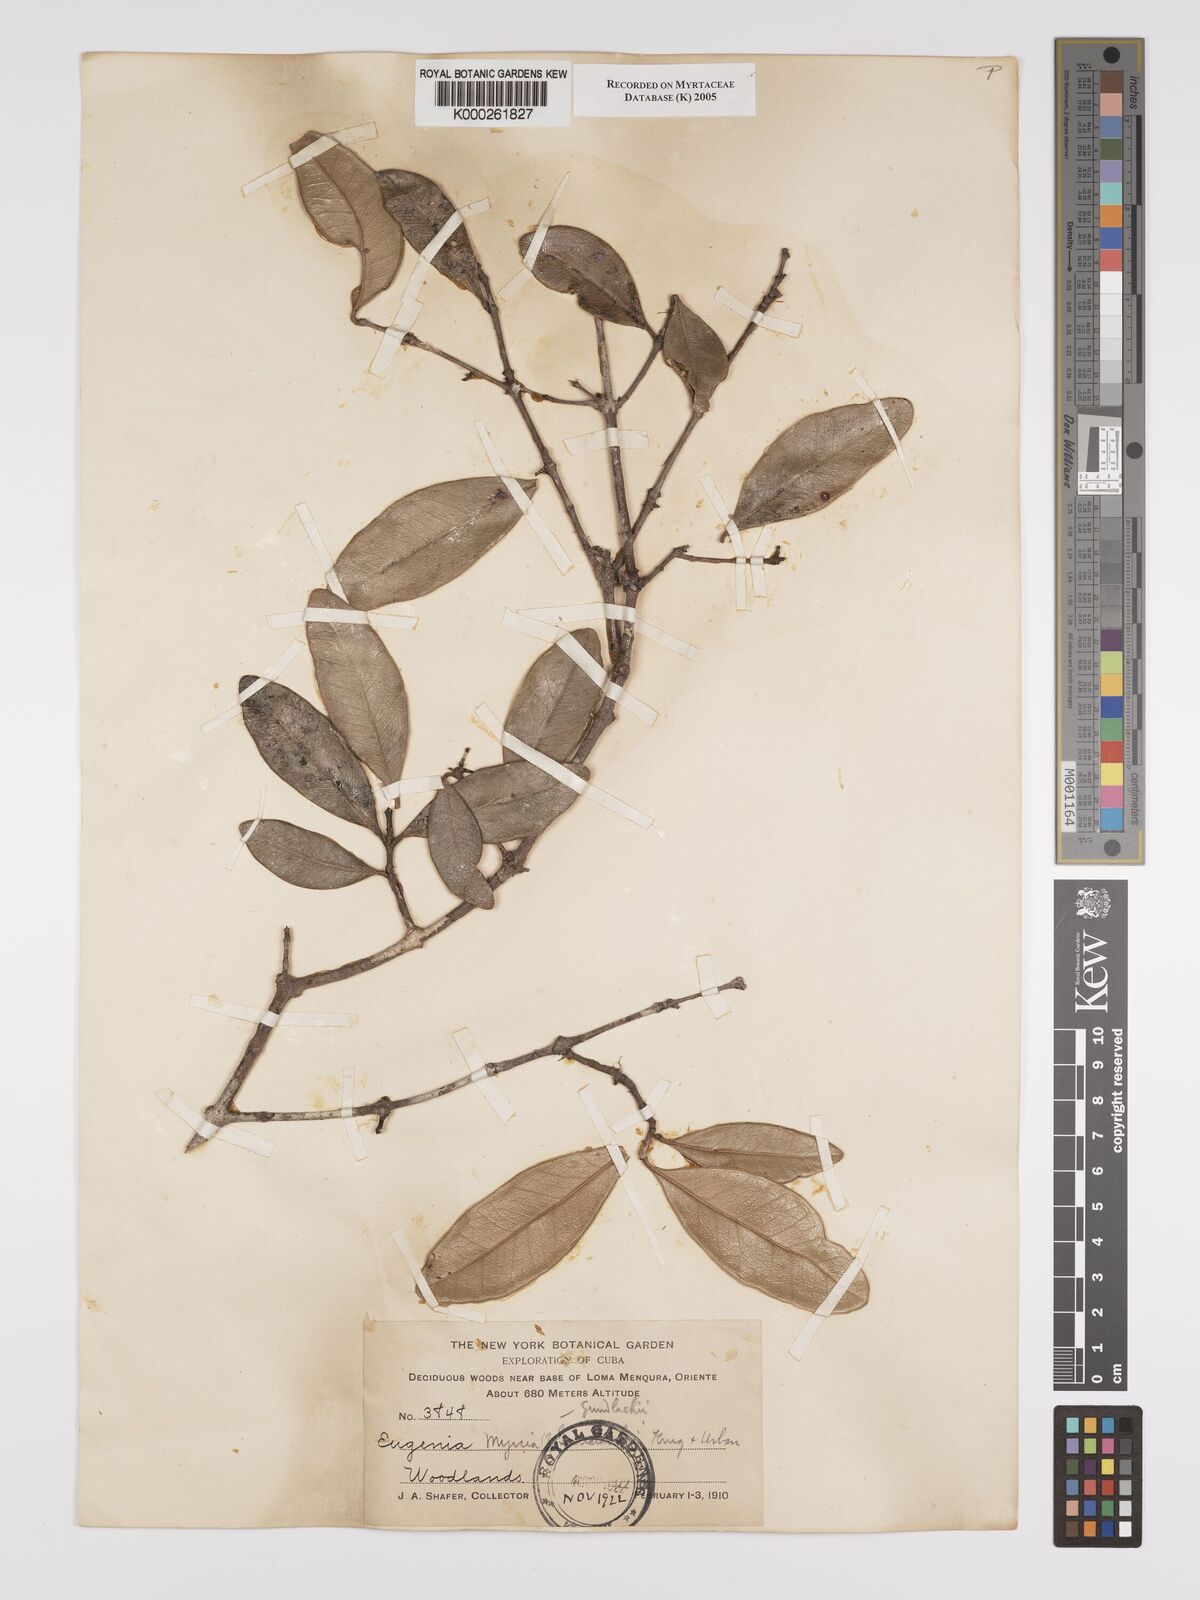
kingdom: Plantae
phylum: Tracheophyta
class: Magnoliopsida
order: Myrtales
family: Myrtaceae
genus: Myrcia
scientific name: Myrcia gundlachii
